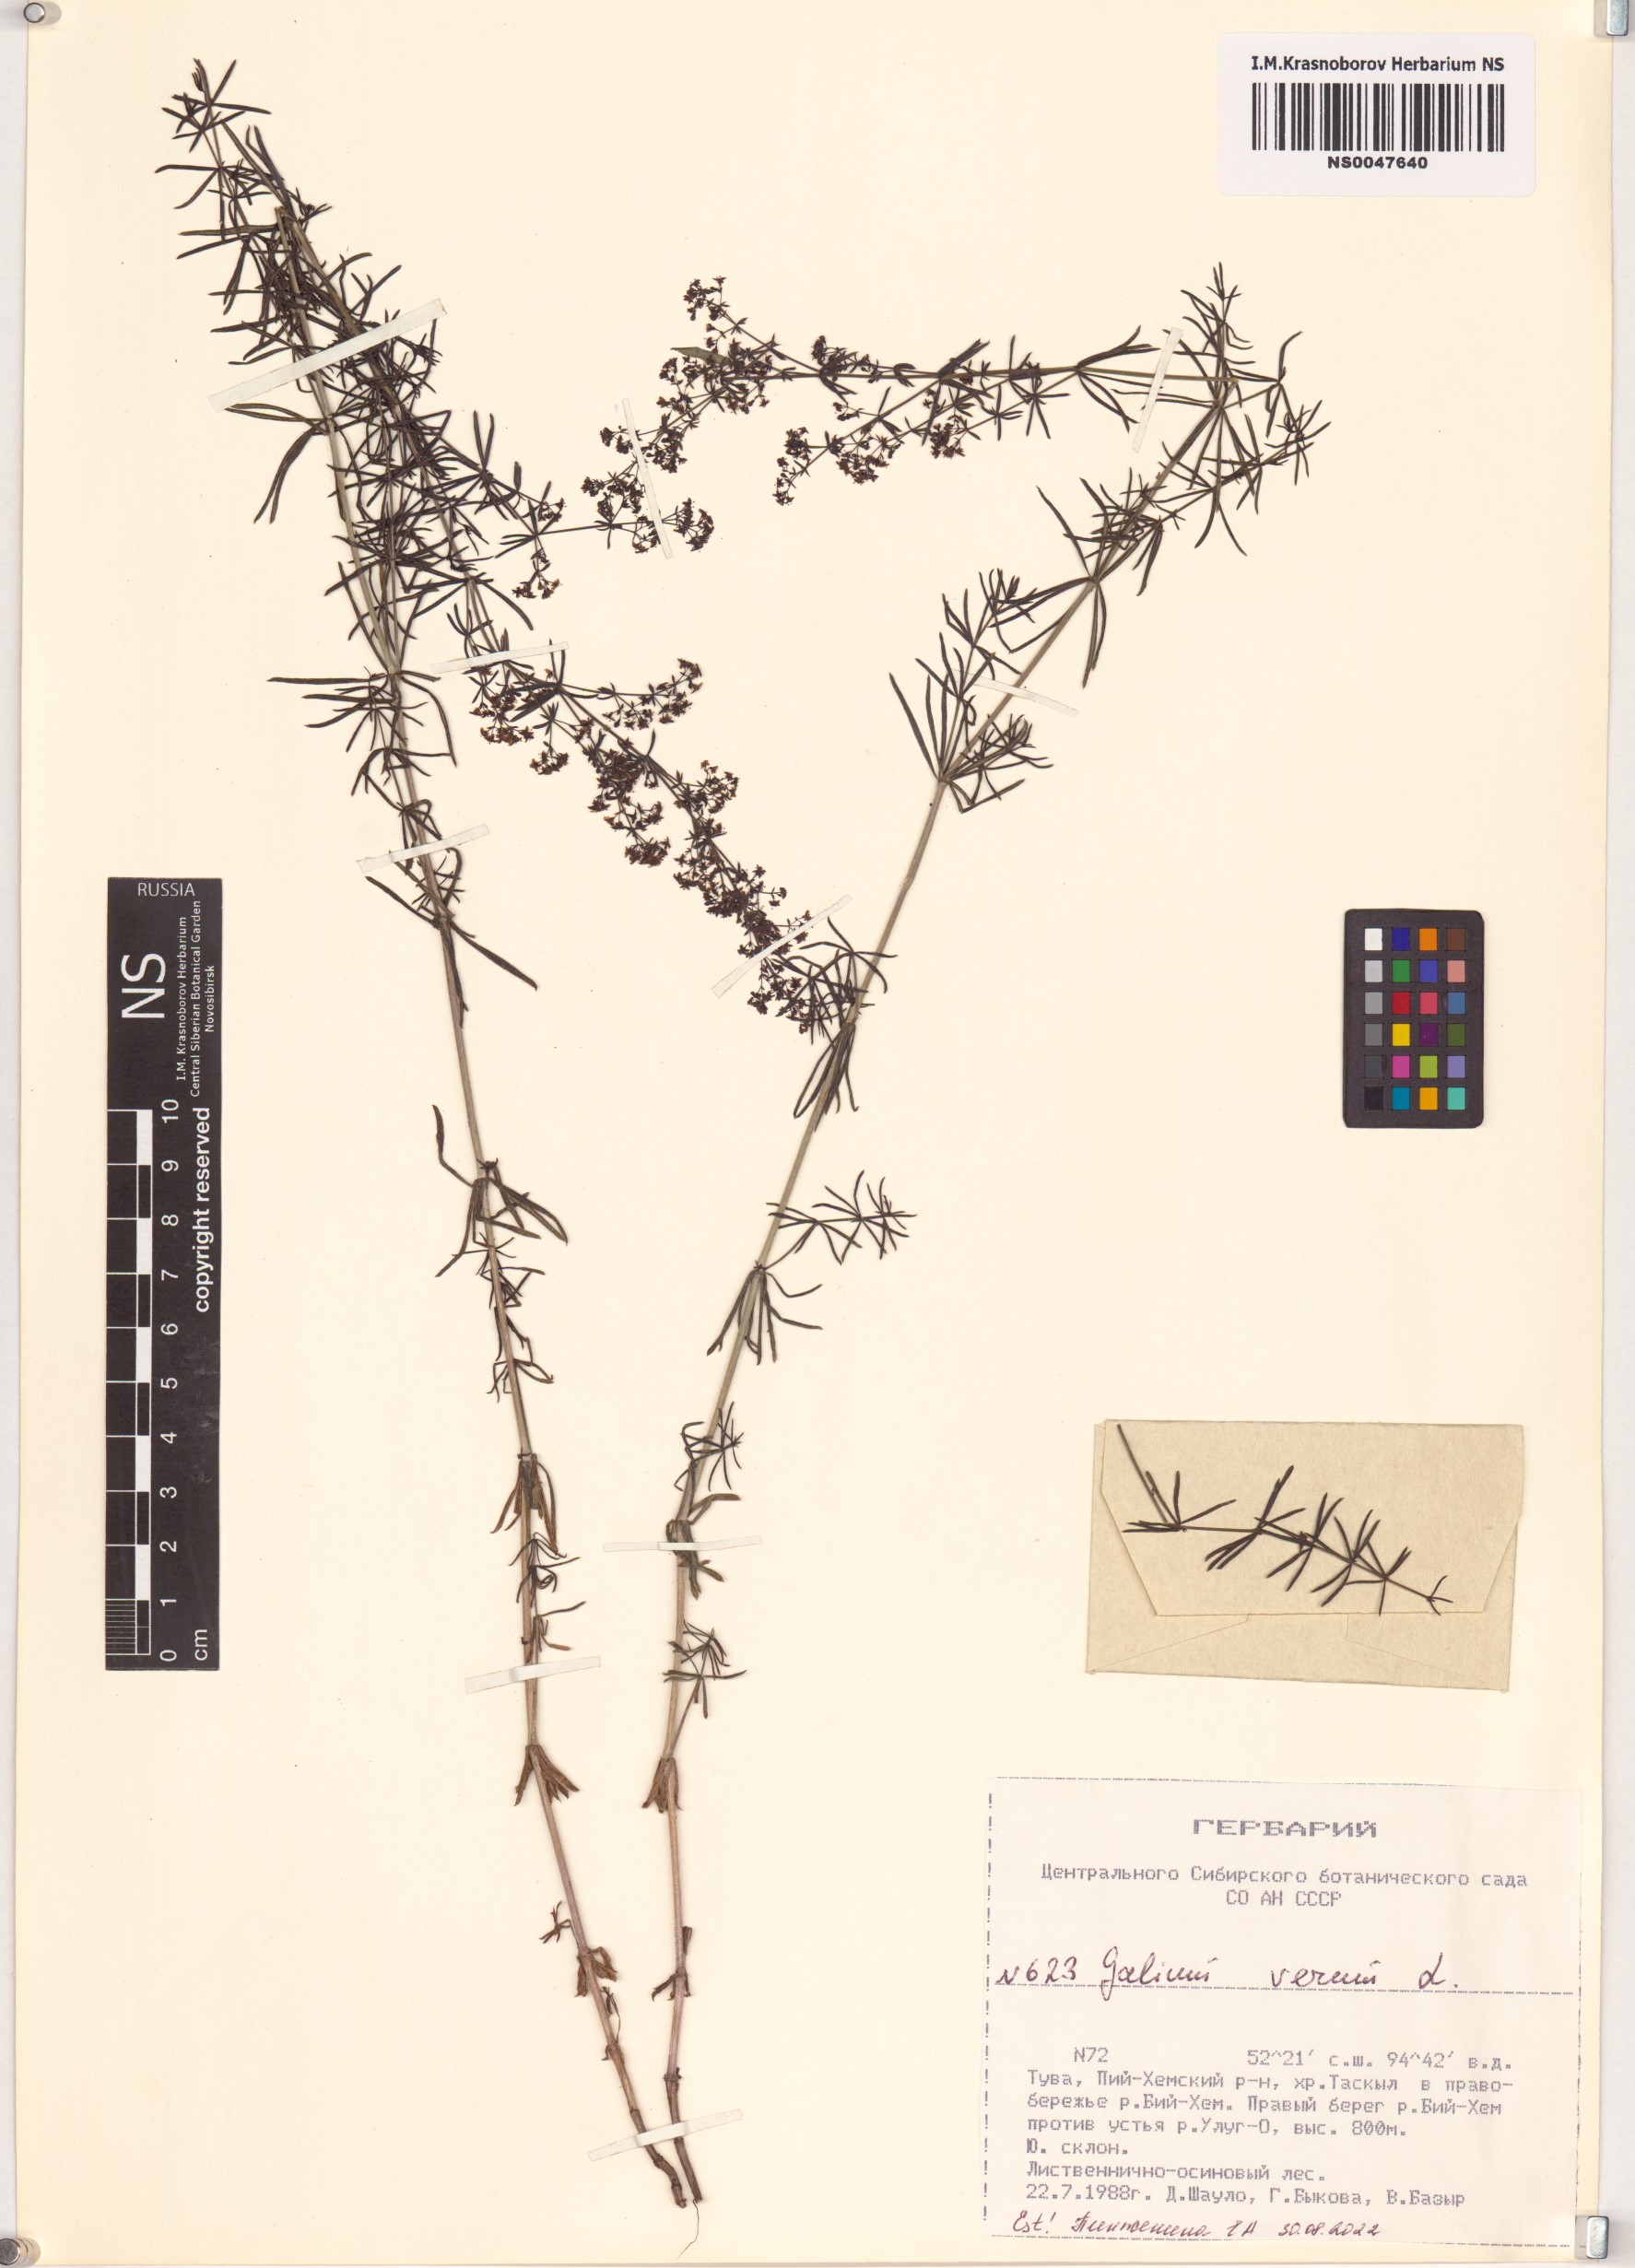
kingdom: Plantae
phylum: Tracheophyta
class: Magnoliopsida
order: Gentianales
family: Rubiaceae
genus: Galium
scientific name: Galium verum
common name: Lady's bedstraw
